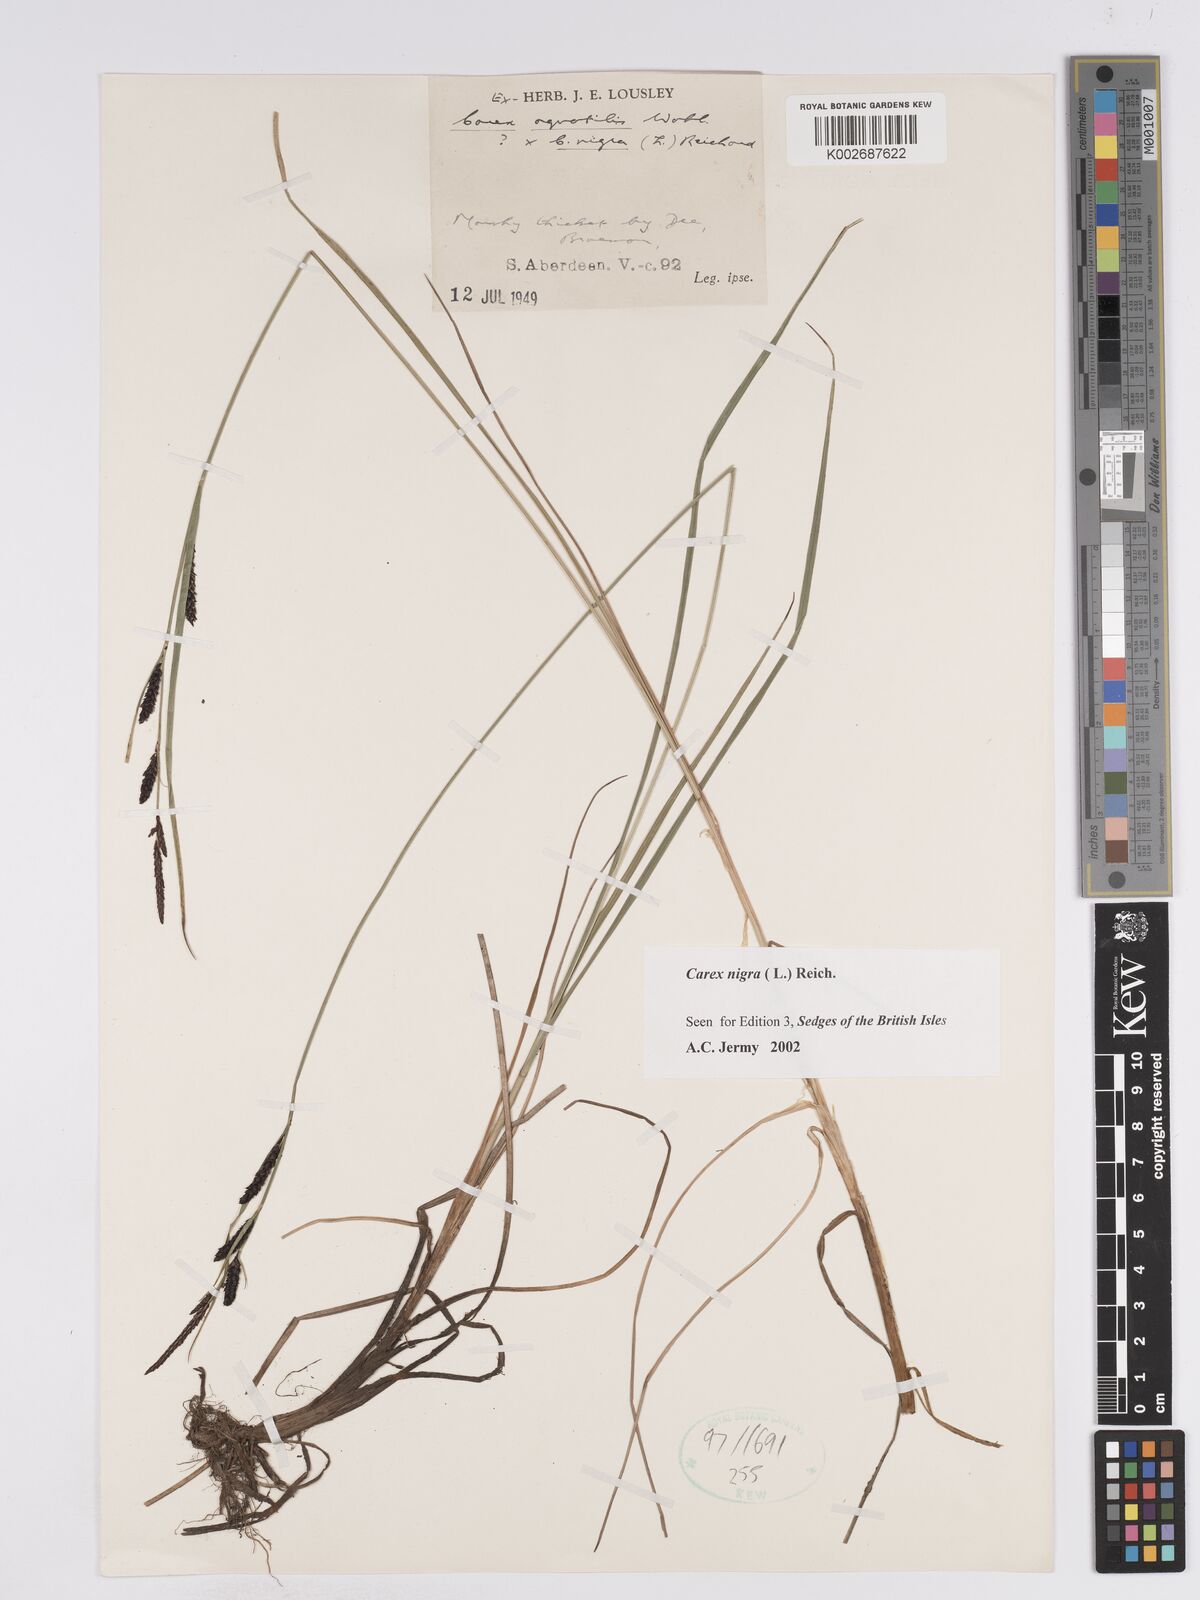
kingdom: Plantae
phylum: Tracheophyta
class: Liliopsida
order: Poales
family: Cyperaceae
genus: Carex
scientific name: Carex nigra
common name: Common sedge
